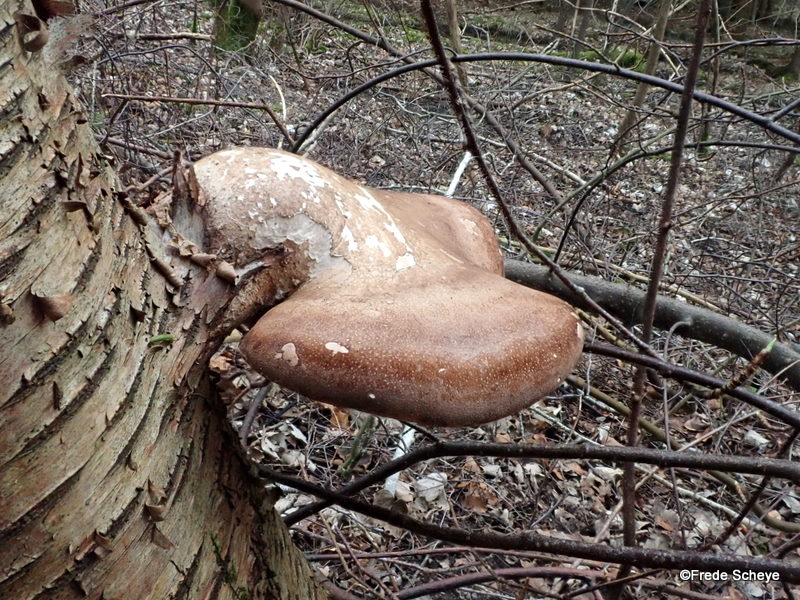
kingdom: Fungi
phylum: Basidiomycota
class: Agaricomycetes
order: Polyporales
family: Fomitopsidaceae
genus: Fomitopsis
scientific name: Fomitopsis betulina
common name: birkeporesvamp
